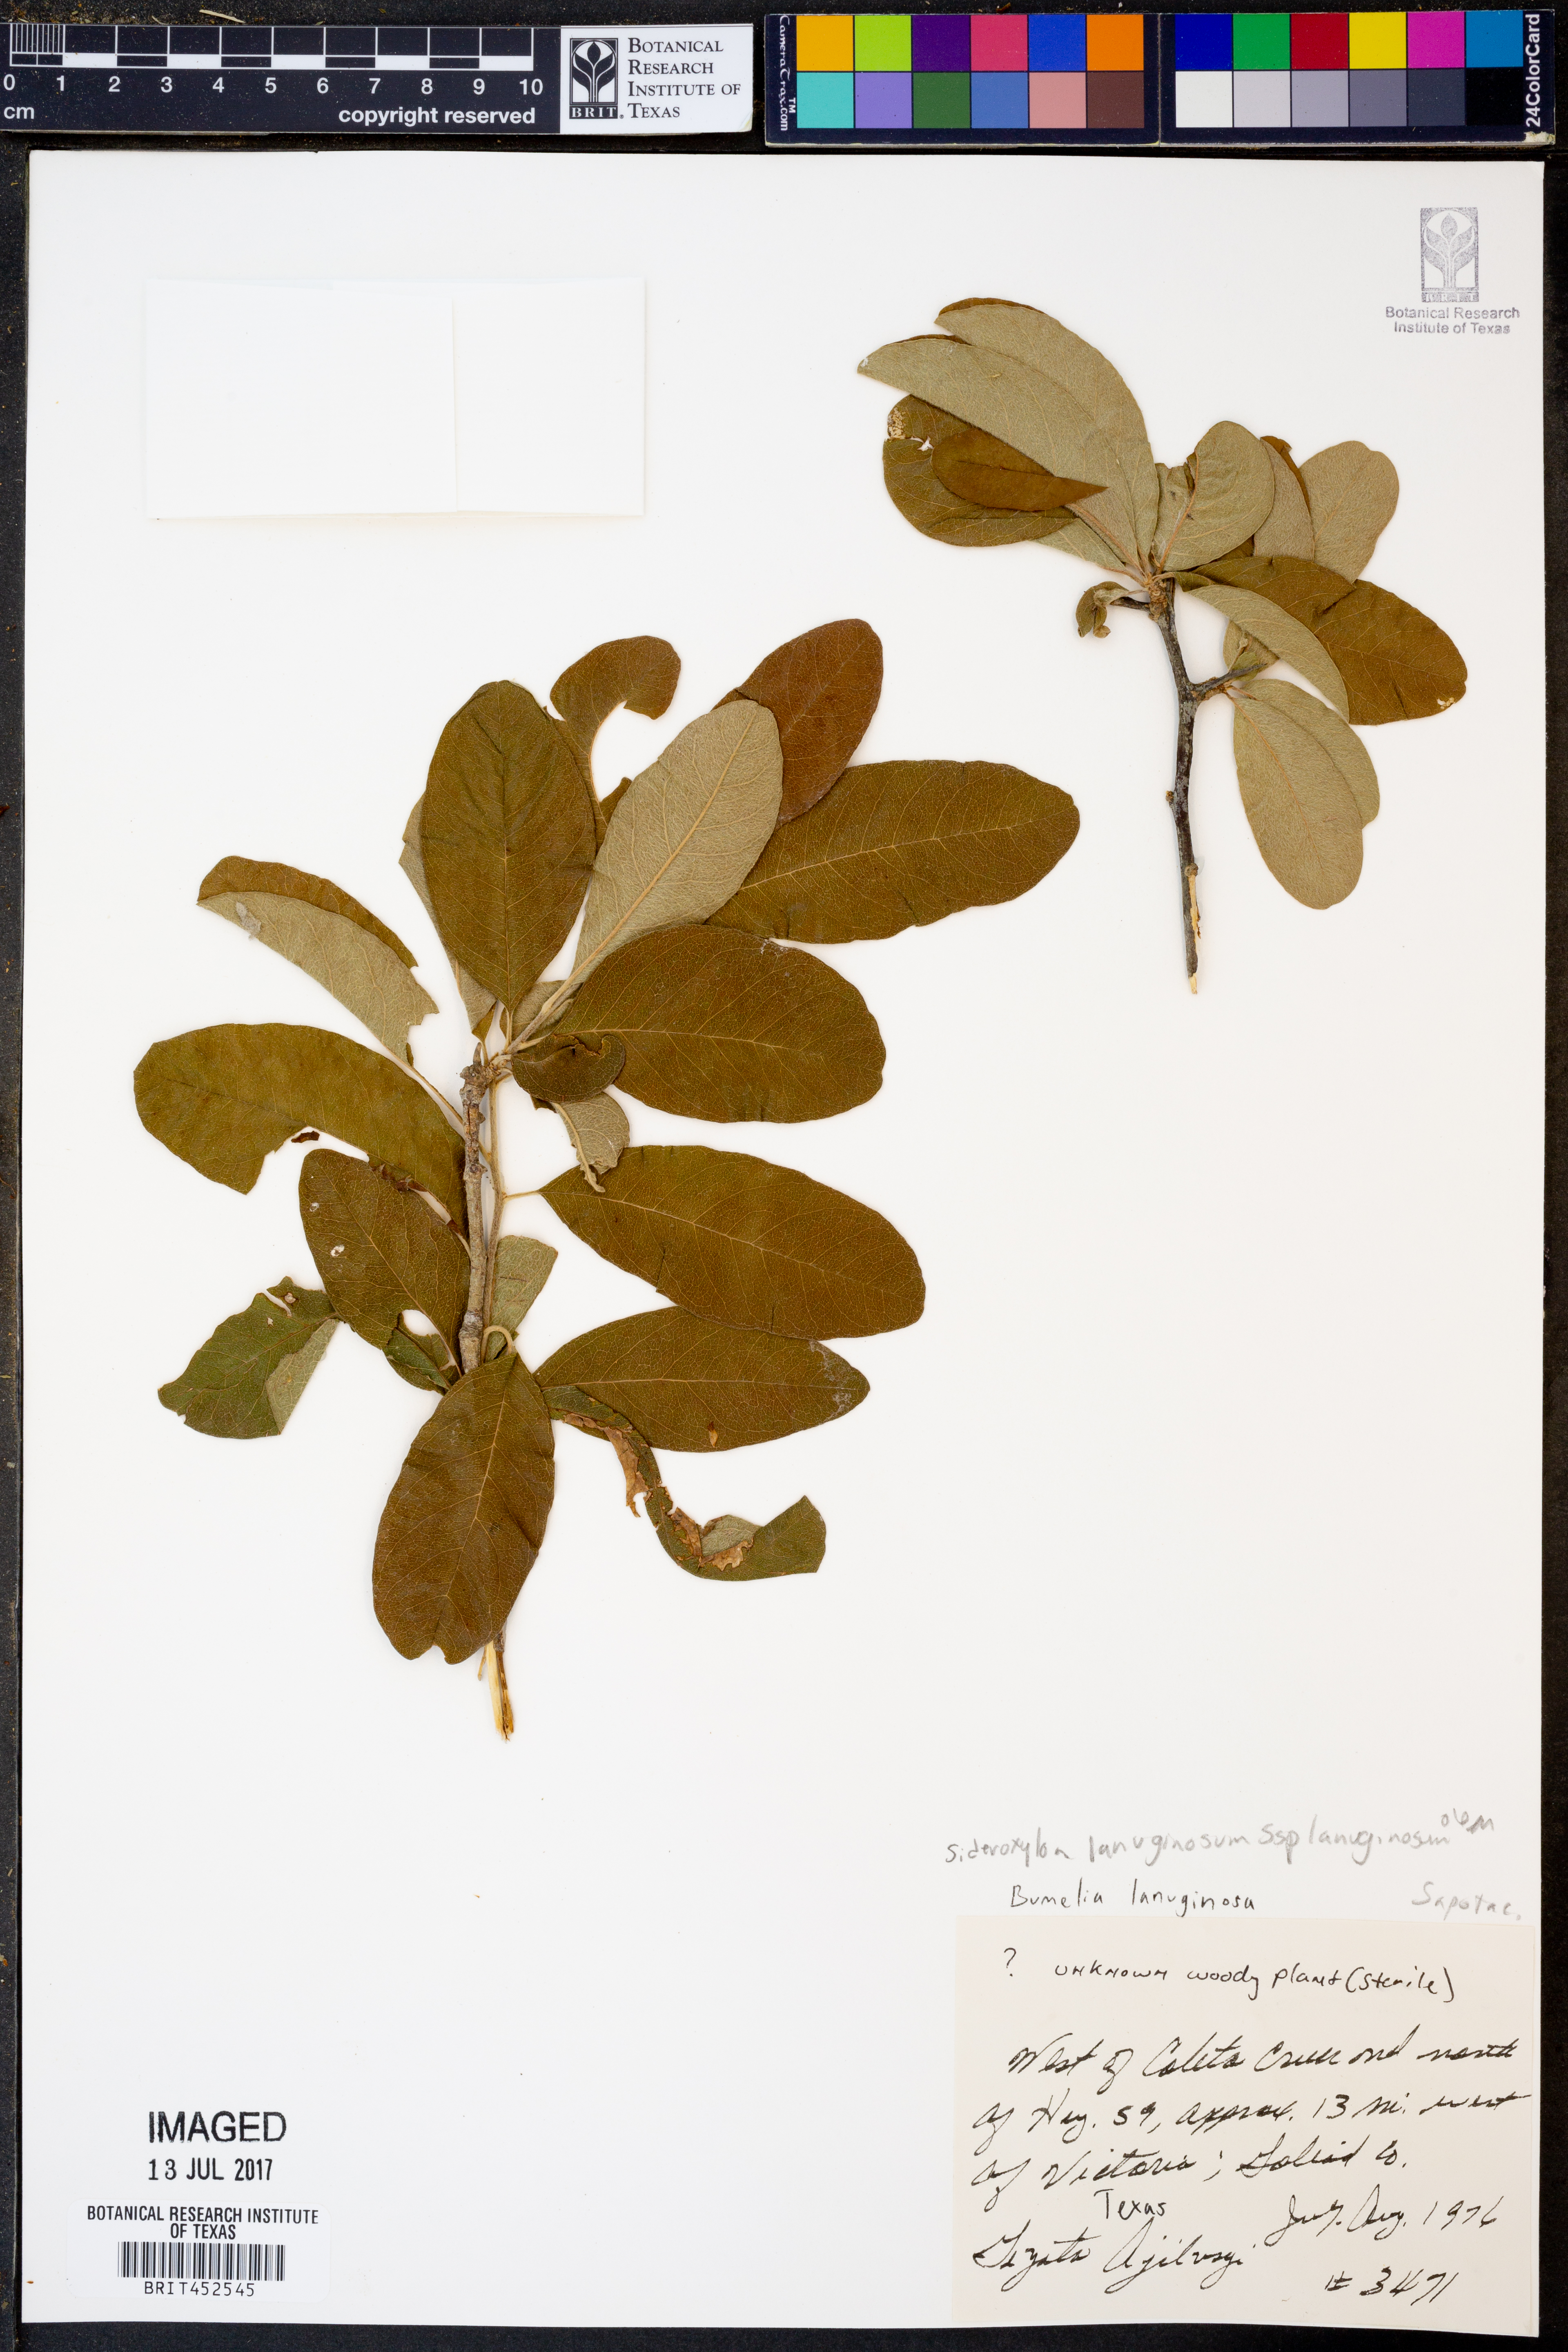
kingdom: Plantae
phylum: Tracheophyta
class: Magnoliopsida
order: Ericales
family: Sapotaceae
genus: Sideroxylon
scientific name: Sideroxylon lanuginosum
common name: Chittamwood
